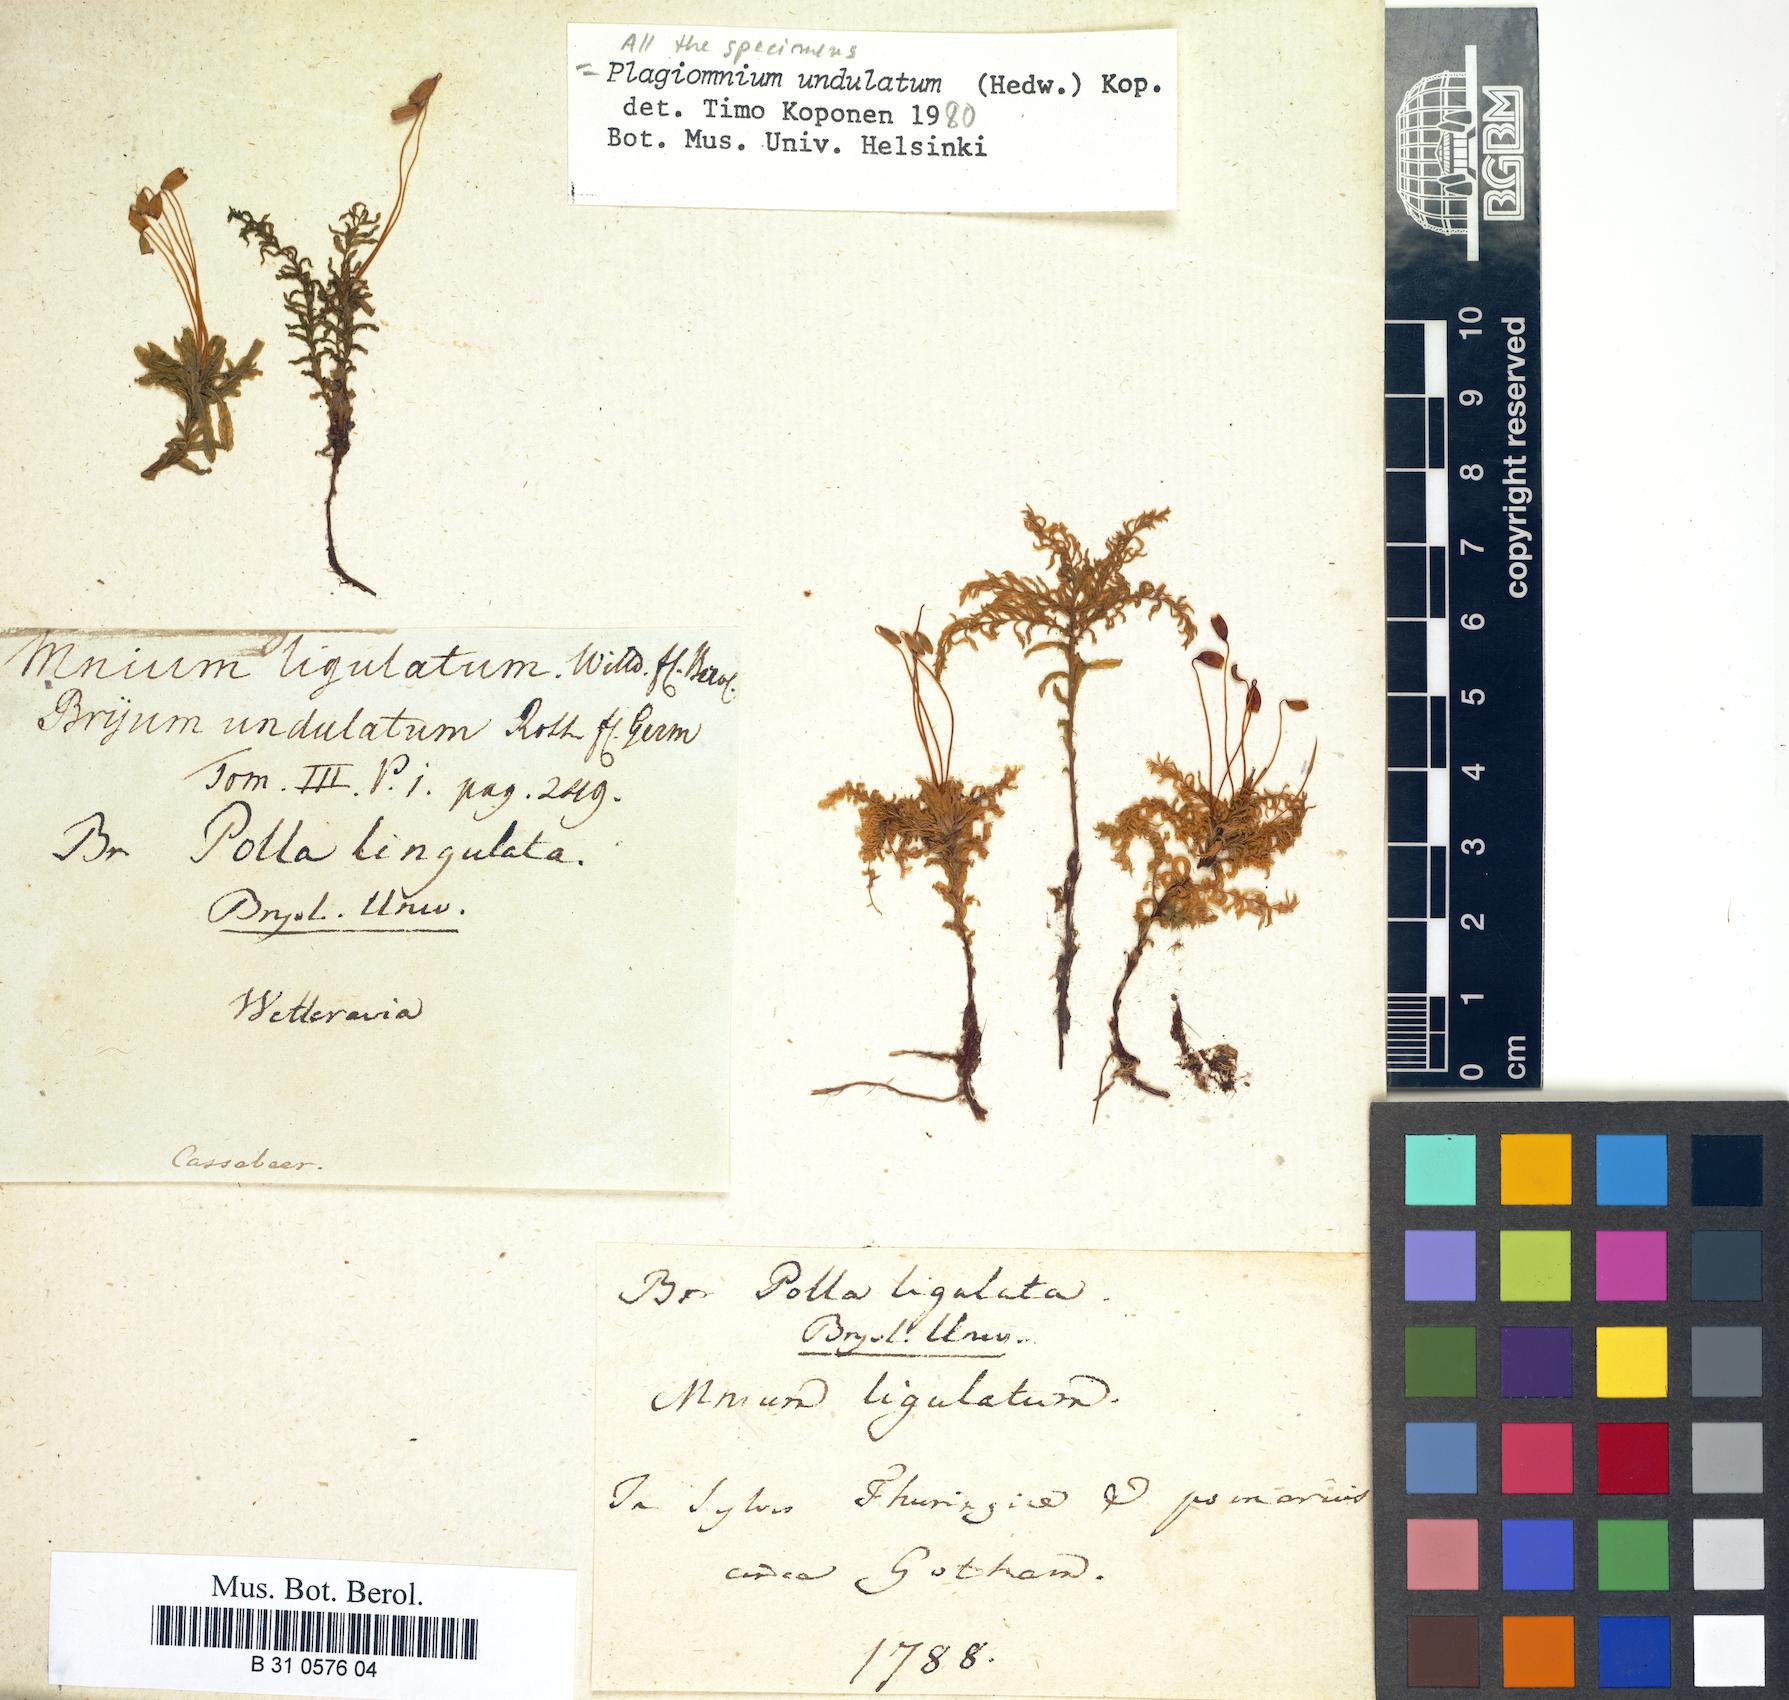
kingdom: Plantae
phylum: Bryophyta
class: Bryopsida
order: Bryales
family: Mniaceae
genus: Plagiomnium
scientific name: Plagiomnium undulatum
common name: Hart's-tongue thyme-moss
